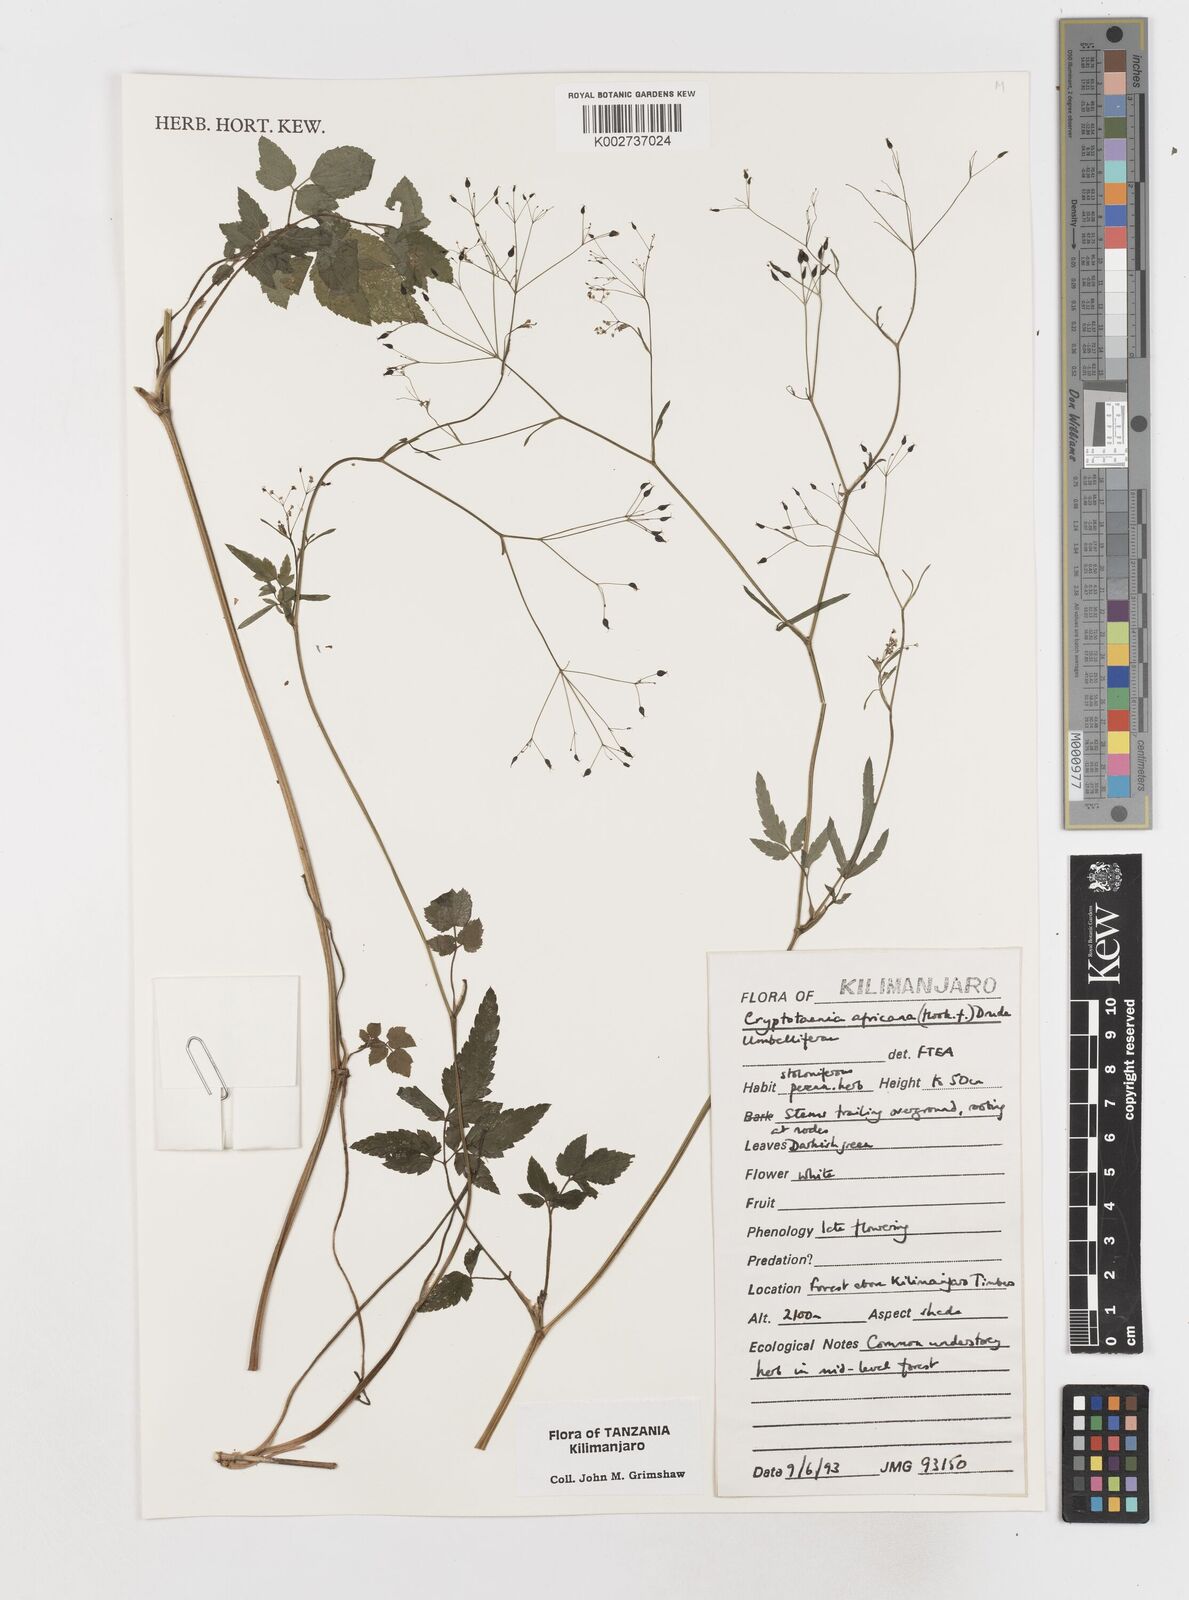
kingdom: Plantae
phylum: Tracheophyta
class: Magnoliopsida
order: Apiales
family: Apiaceae
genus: Cryptotaenia
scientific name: Cryptotaenia africana
